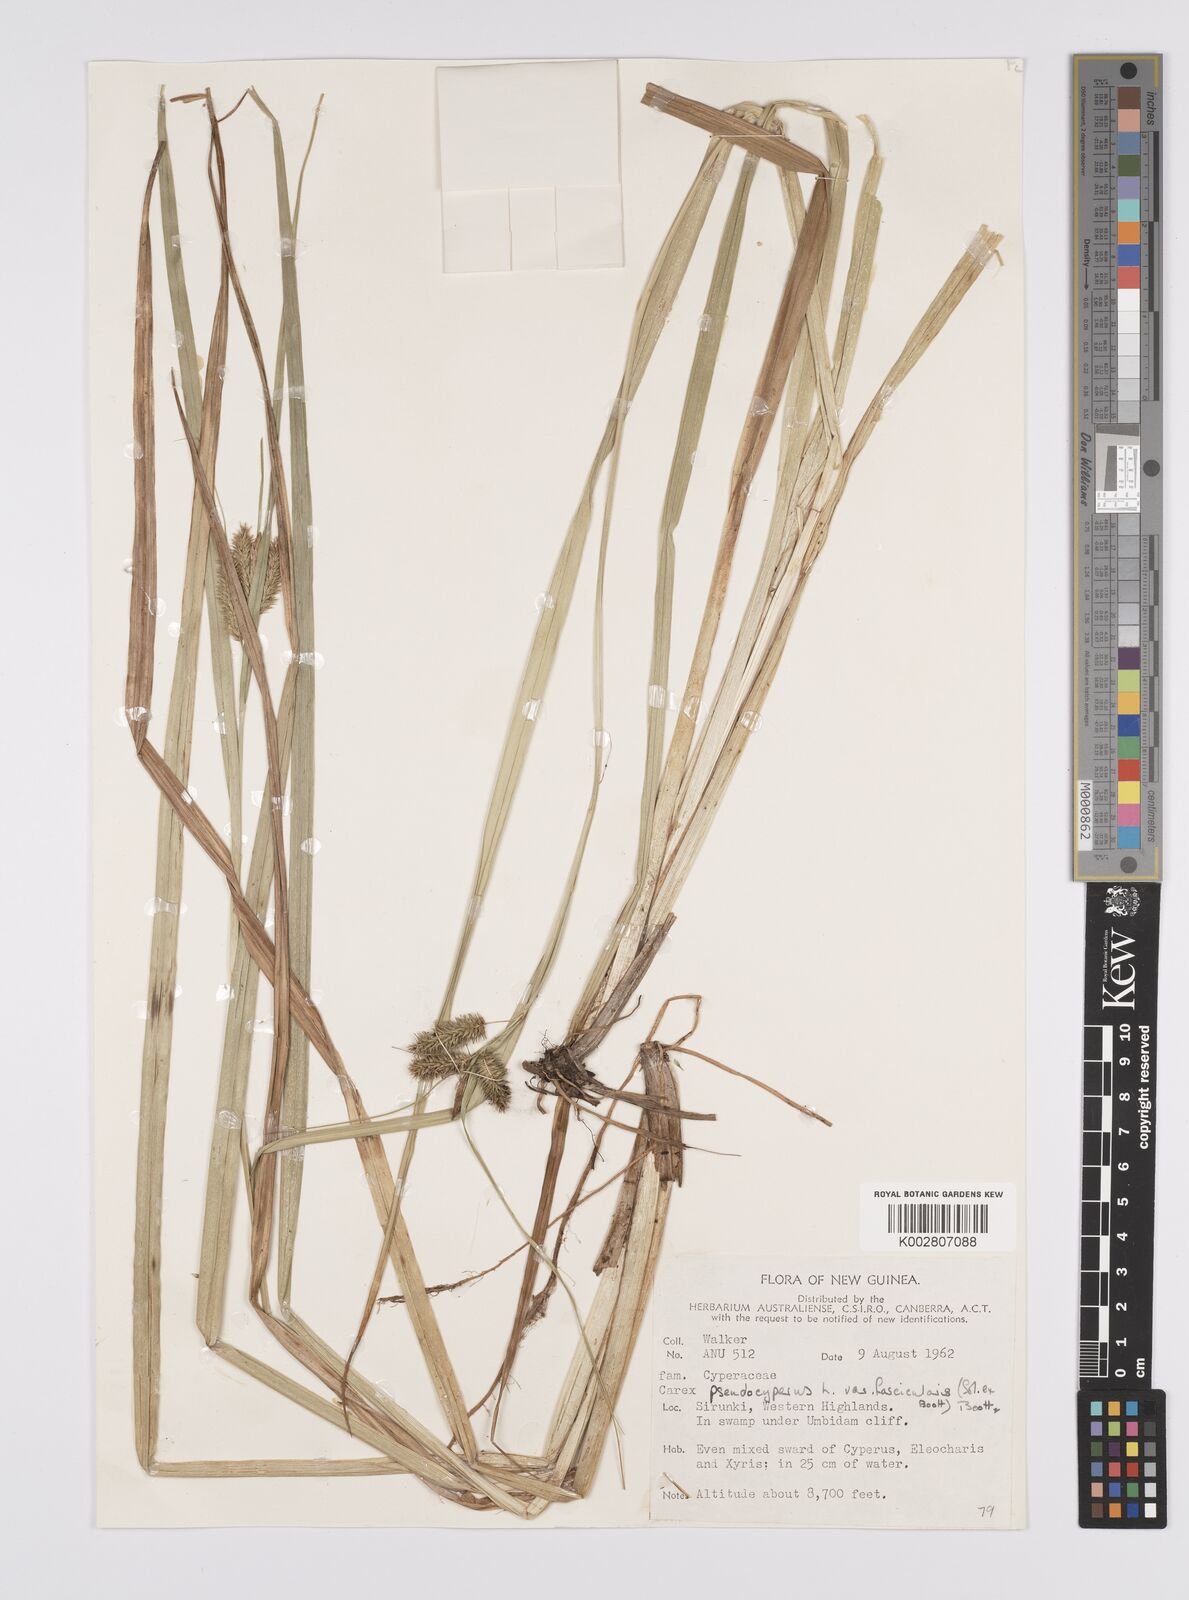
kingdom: Plantae
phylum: Tracheophyta
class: Liliopsida
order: Poales
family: Cyperaceae
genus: Carex
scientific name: Carex fascicularis
